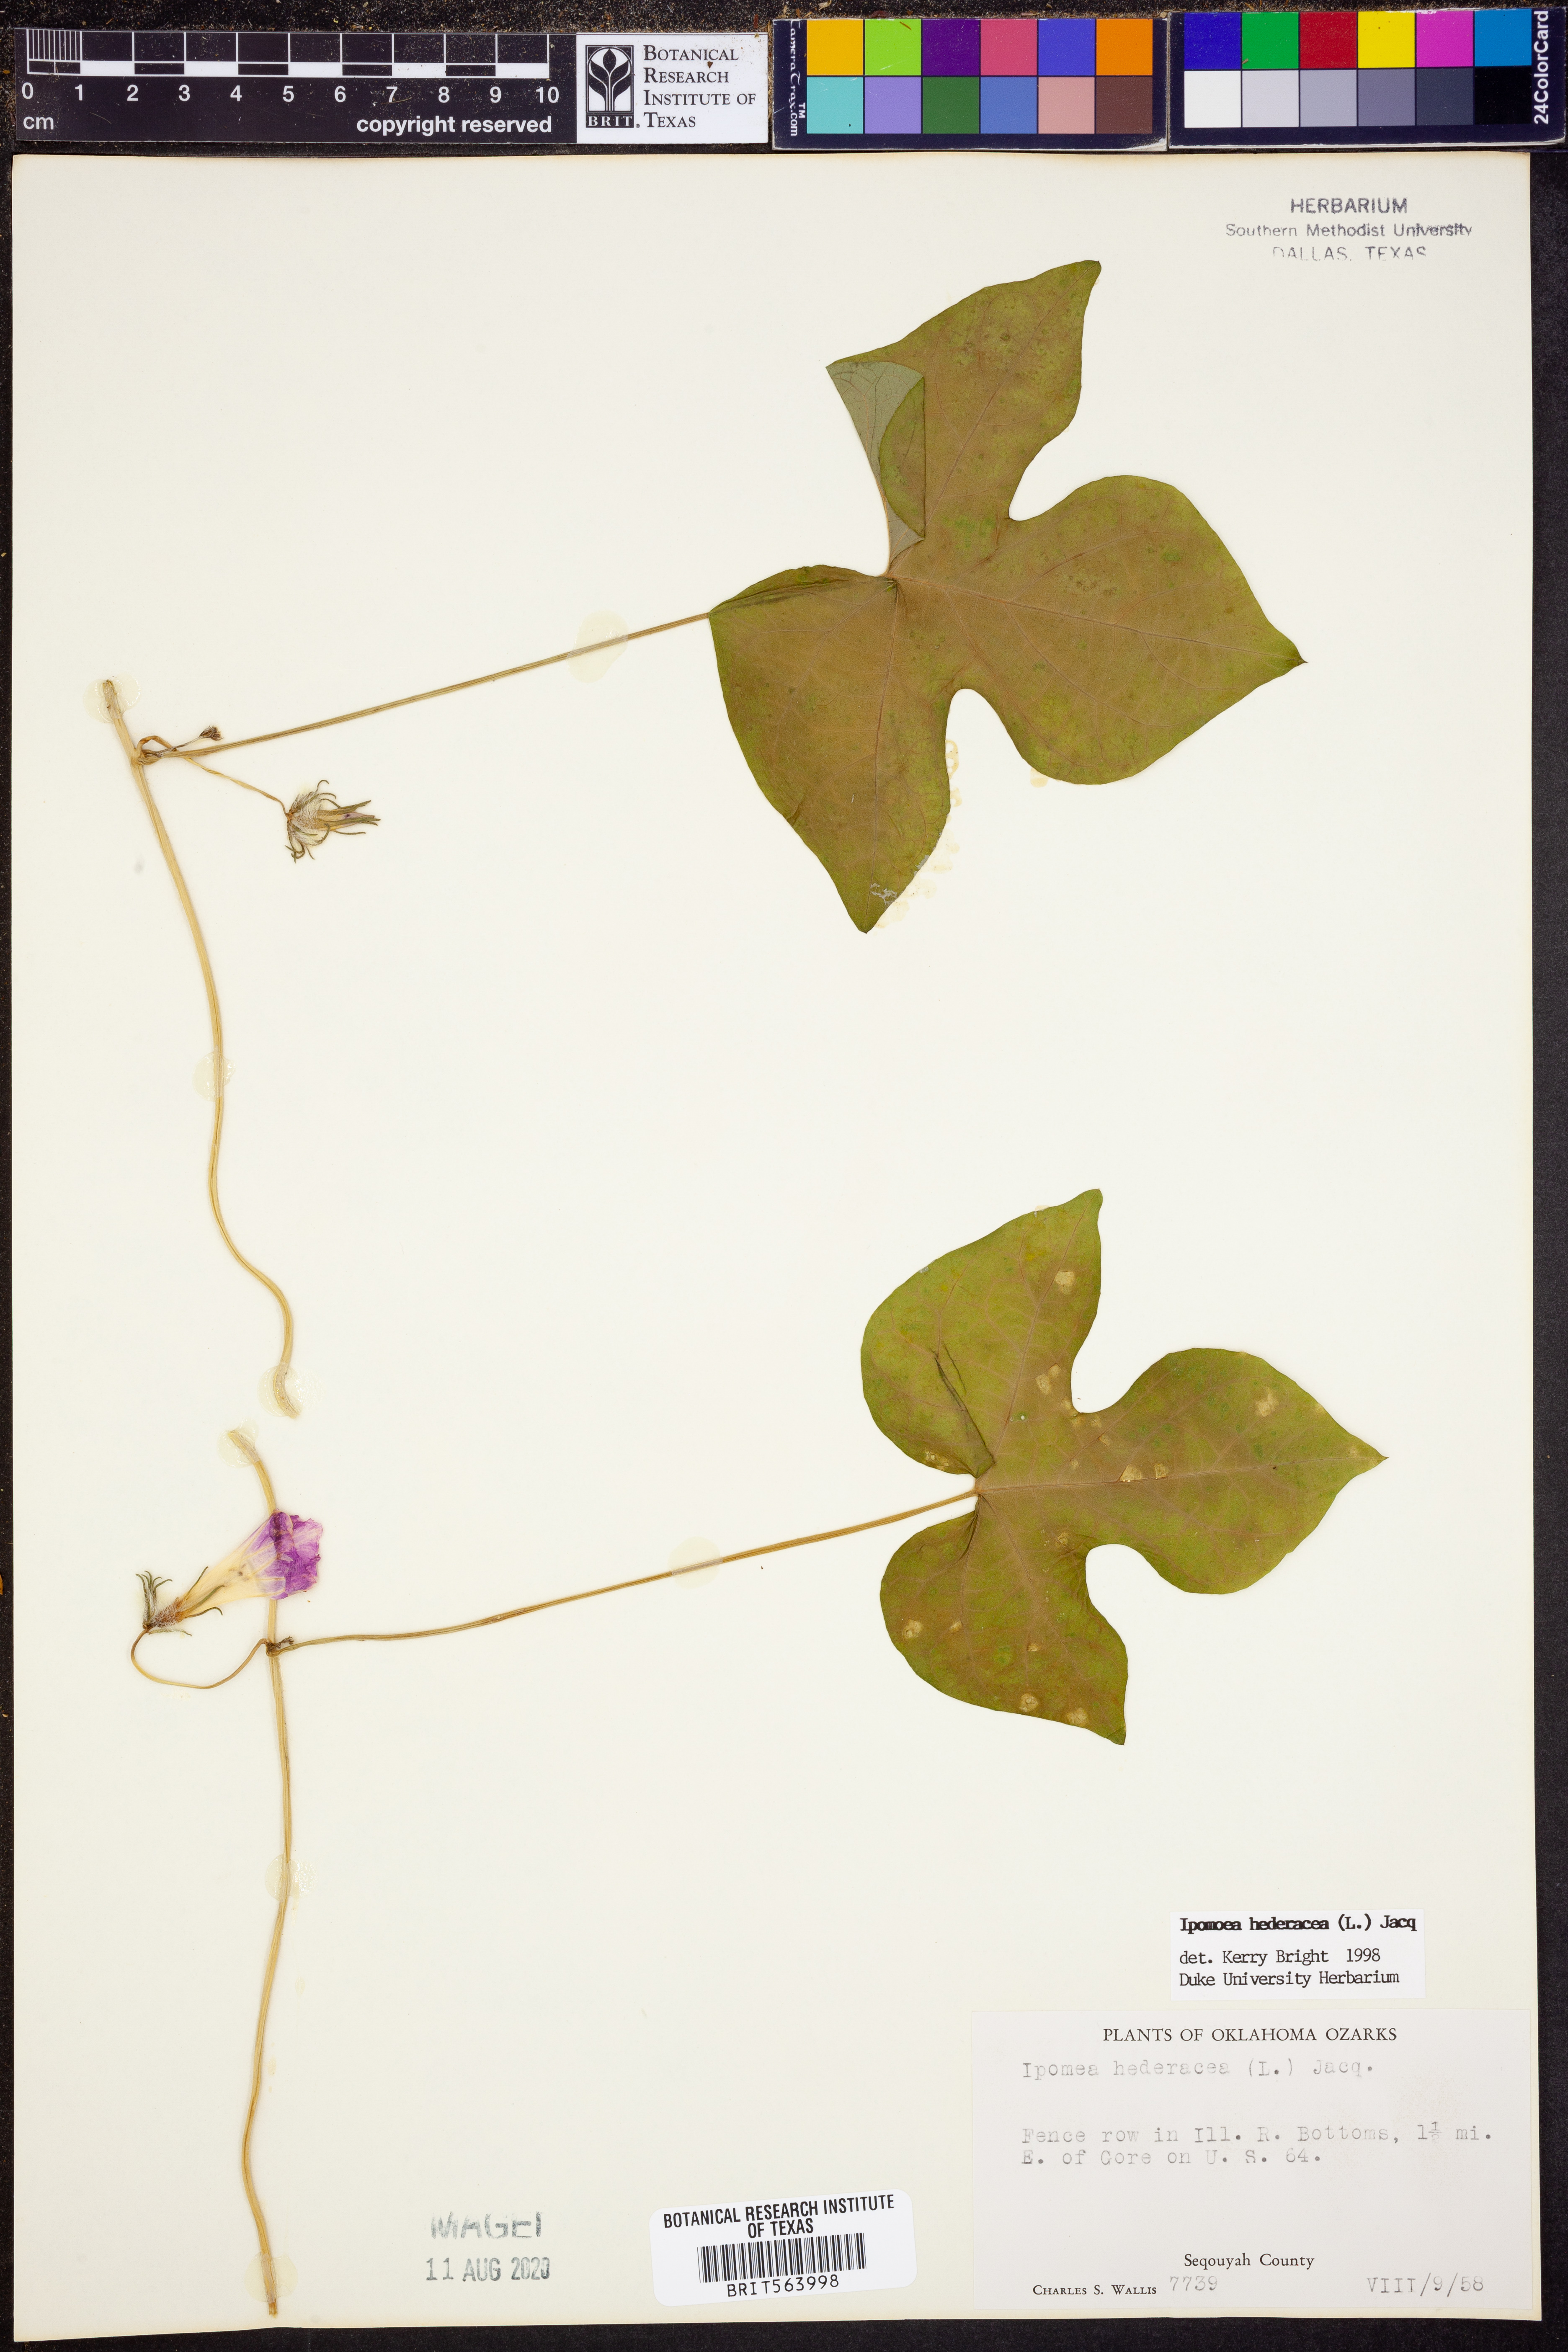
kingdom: Plantae
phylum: Tracheophyta
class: Magnoliopsida
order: Solanales
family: Convolvulaceae
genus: Ipomoea
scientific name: Ipomoea hederacea
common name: Ivy-leaved morning-glory
